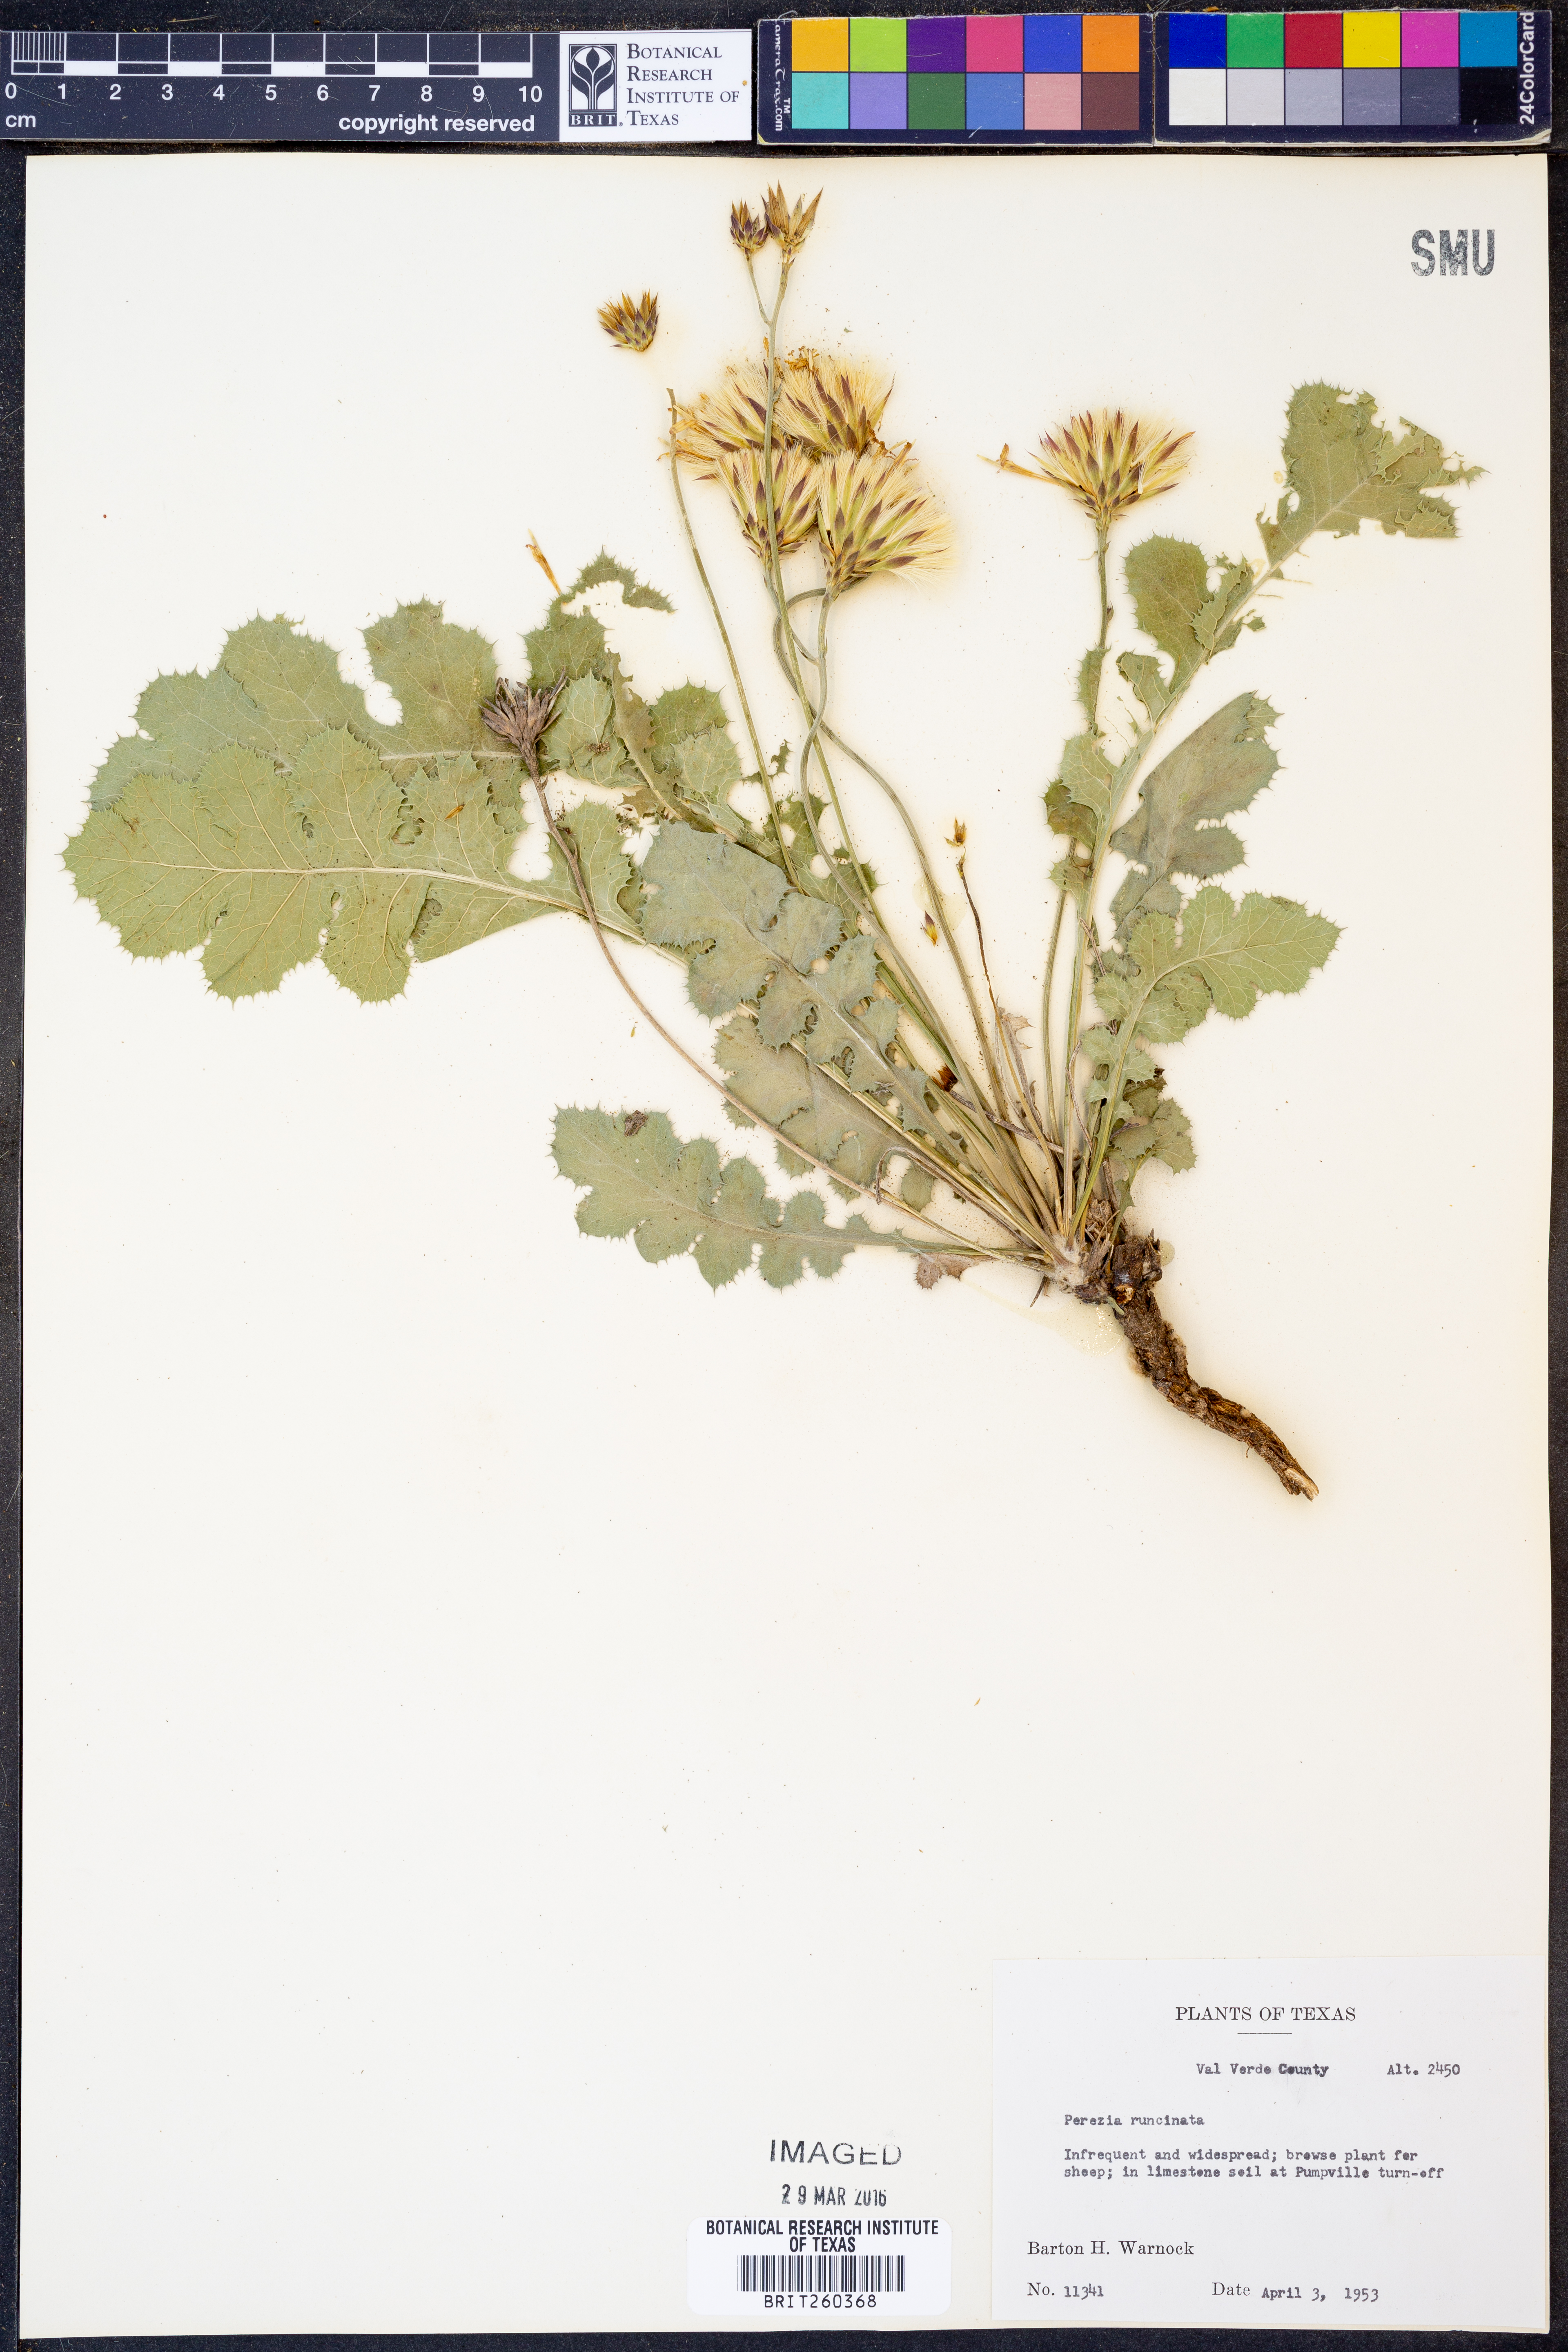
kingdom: Plantae
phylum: Tracheophyta
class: Magnoliopsida
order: Asterales
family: Asteraceae
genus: Acourtia
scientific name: Acourtia runcinata
